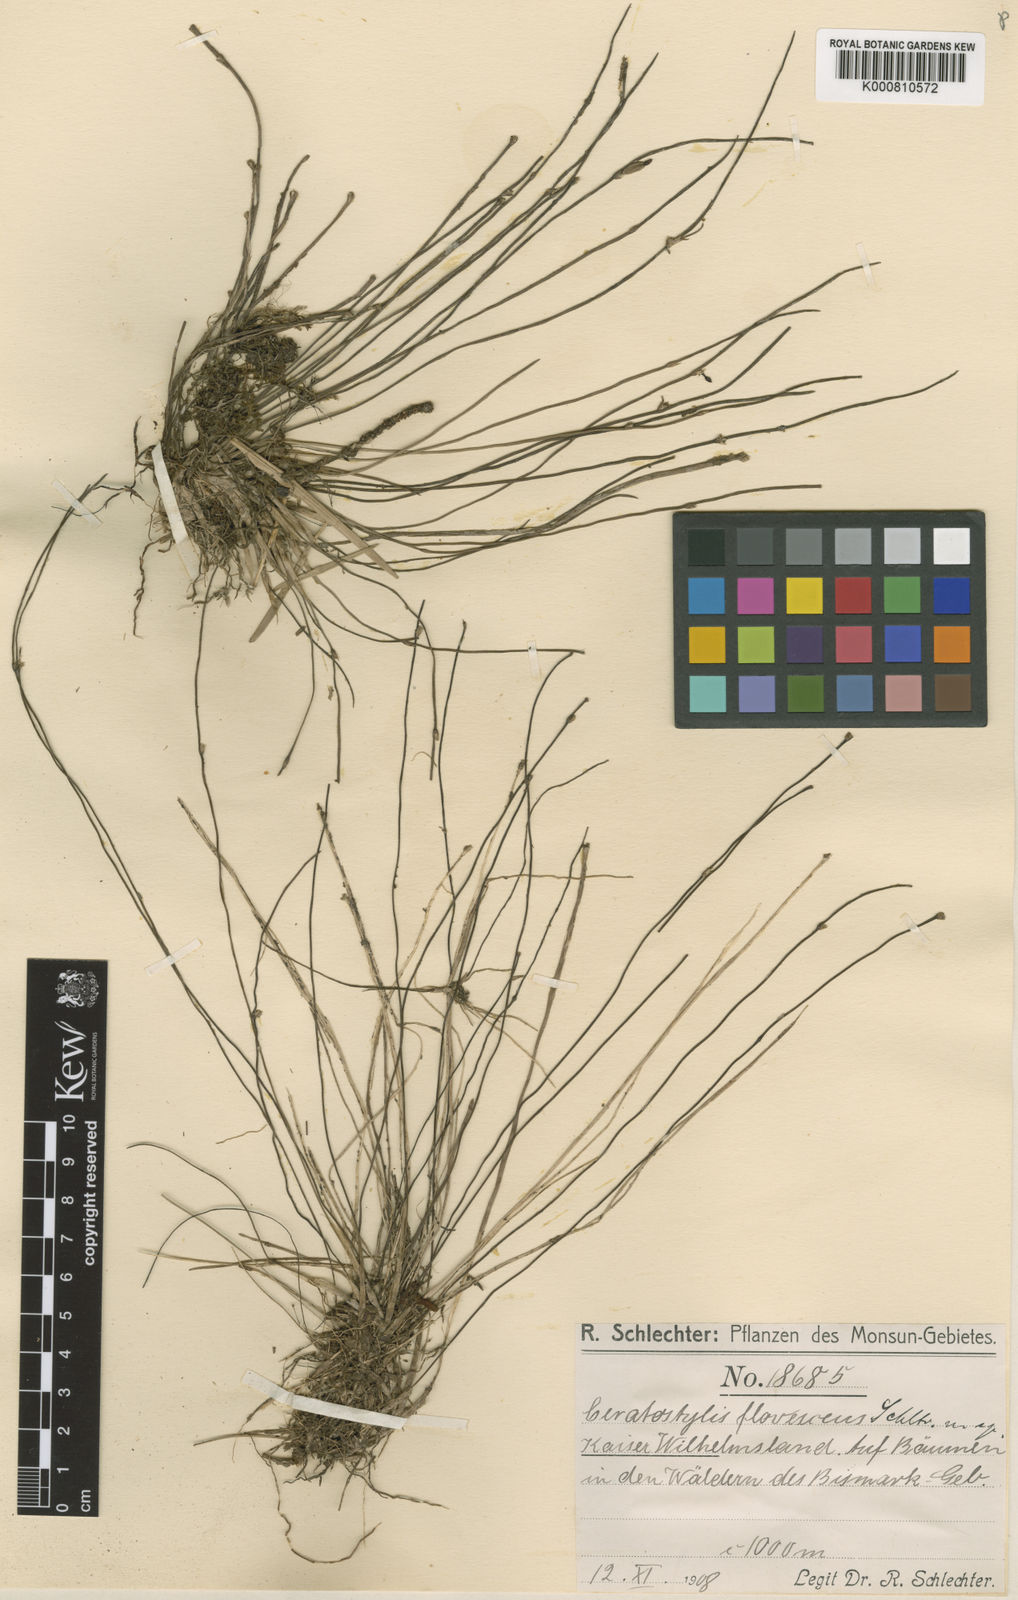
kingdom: Plantae
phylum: Tracheophyta
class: Liliopsida
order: Asparagales
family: Orchidaceae
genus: Ceratostylis
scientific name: Ceratostylis flavescens
